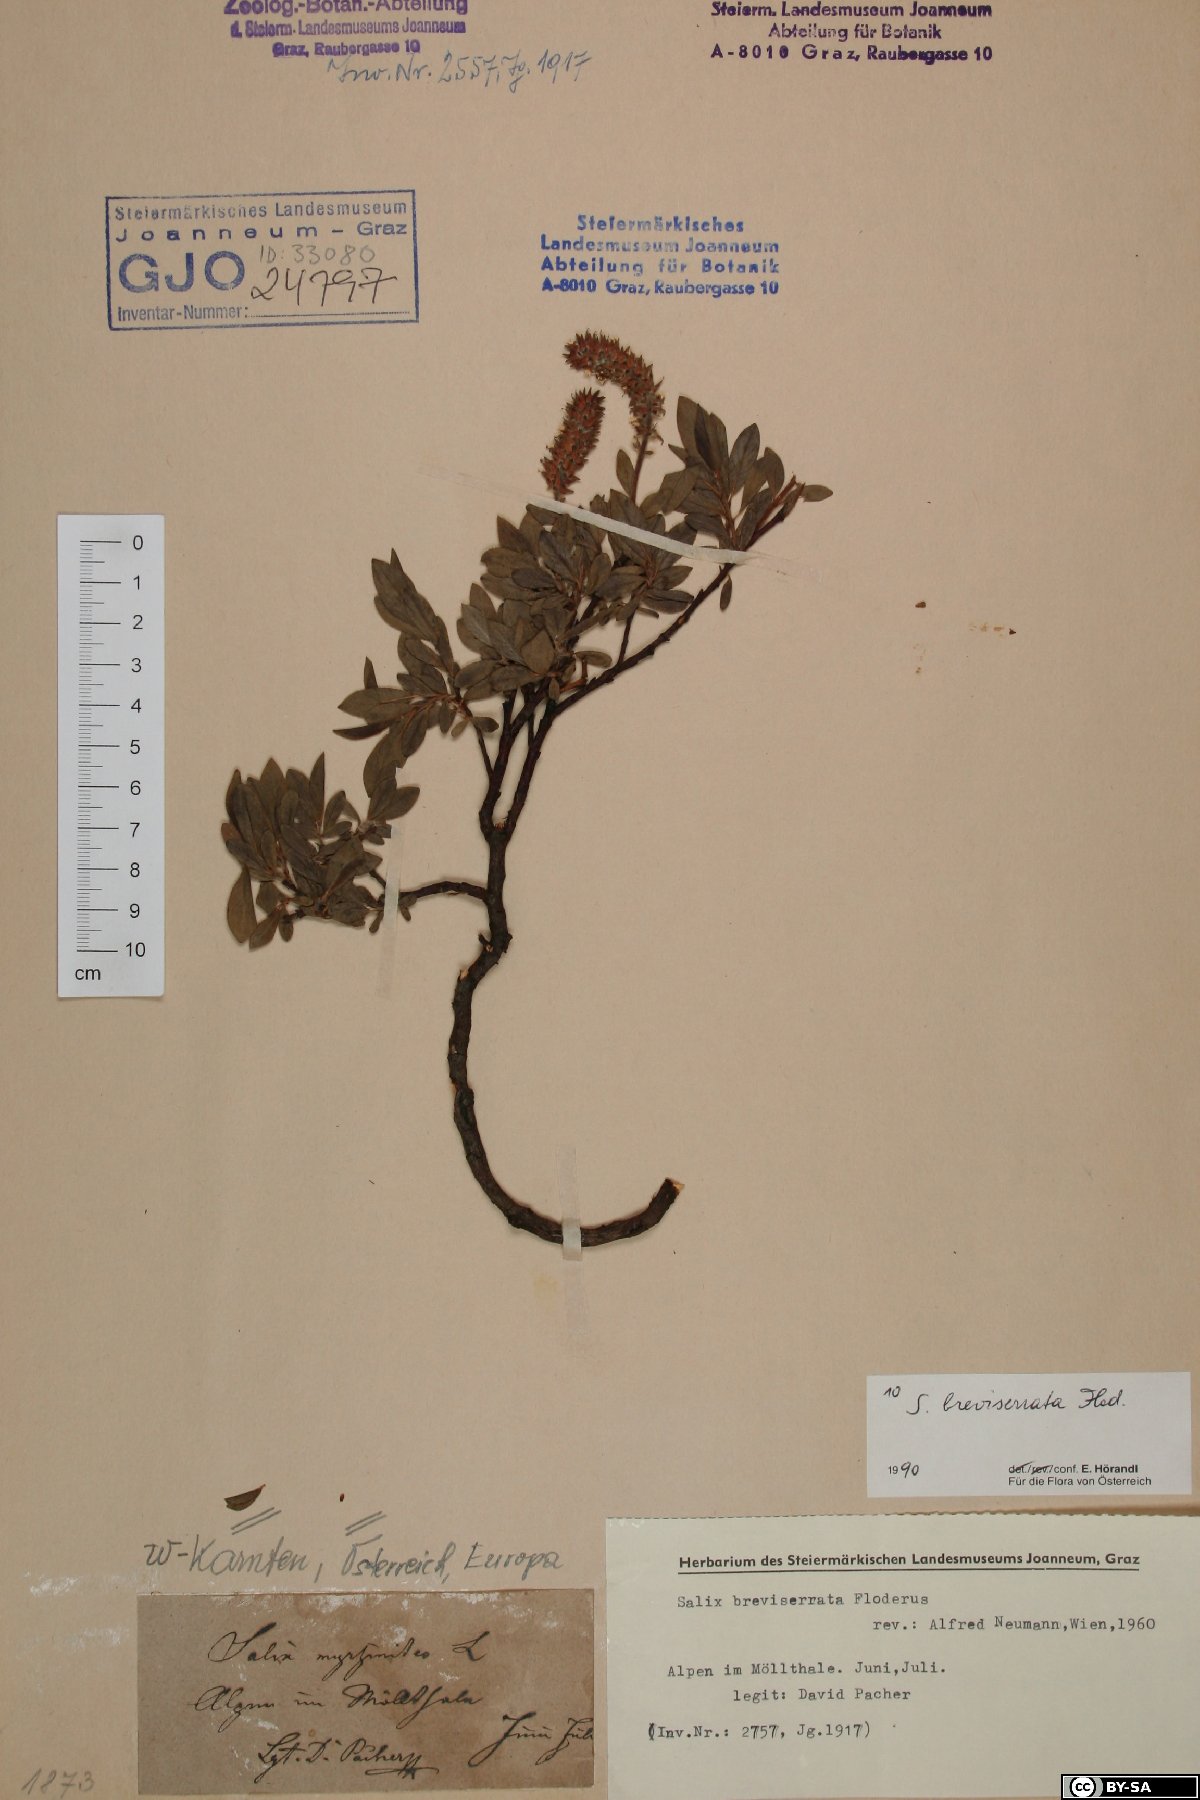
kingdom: Plantae
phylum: Tracheophyta
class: Magnoliopsida
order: Malpighiales
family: Salicaceae
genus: Salix
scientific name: Salix breviserrata
